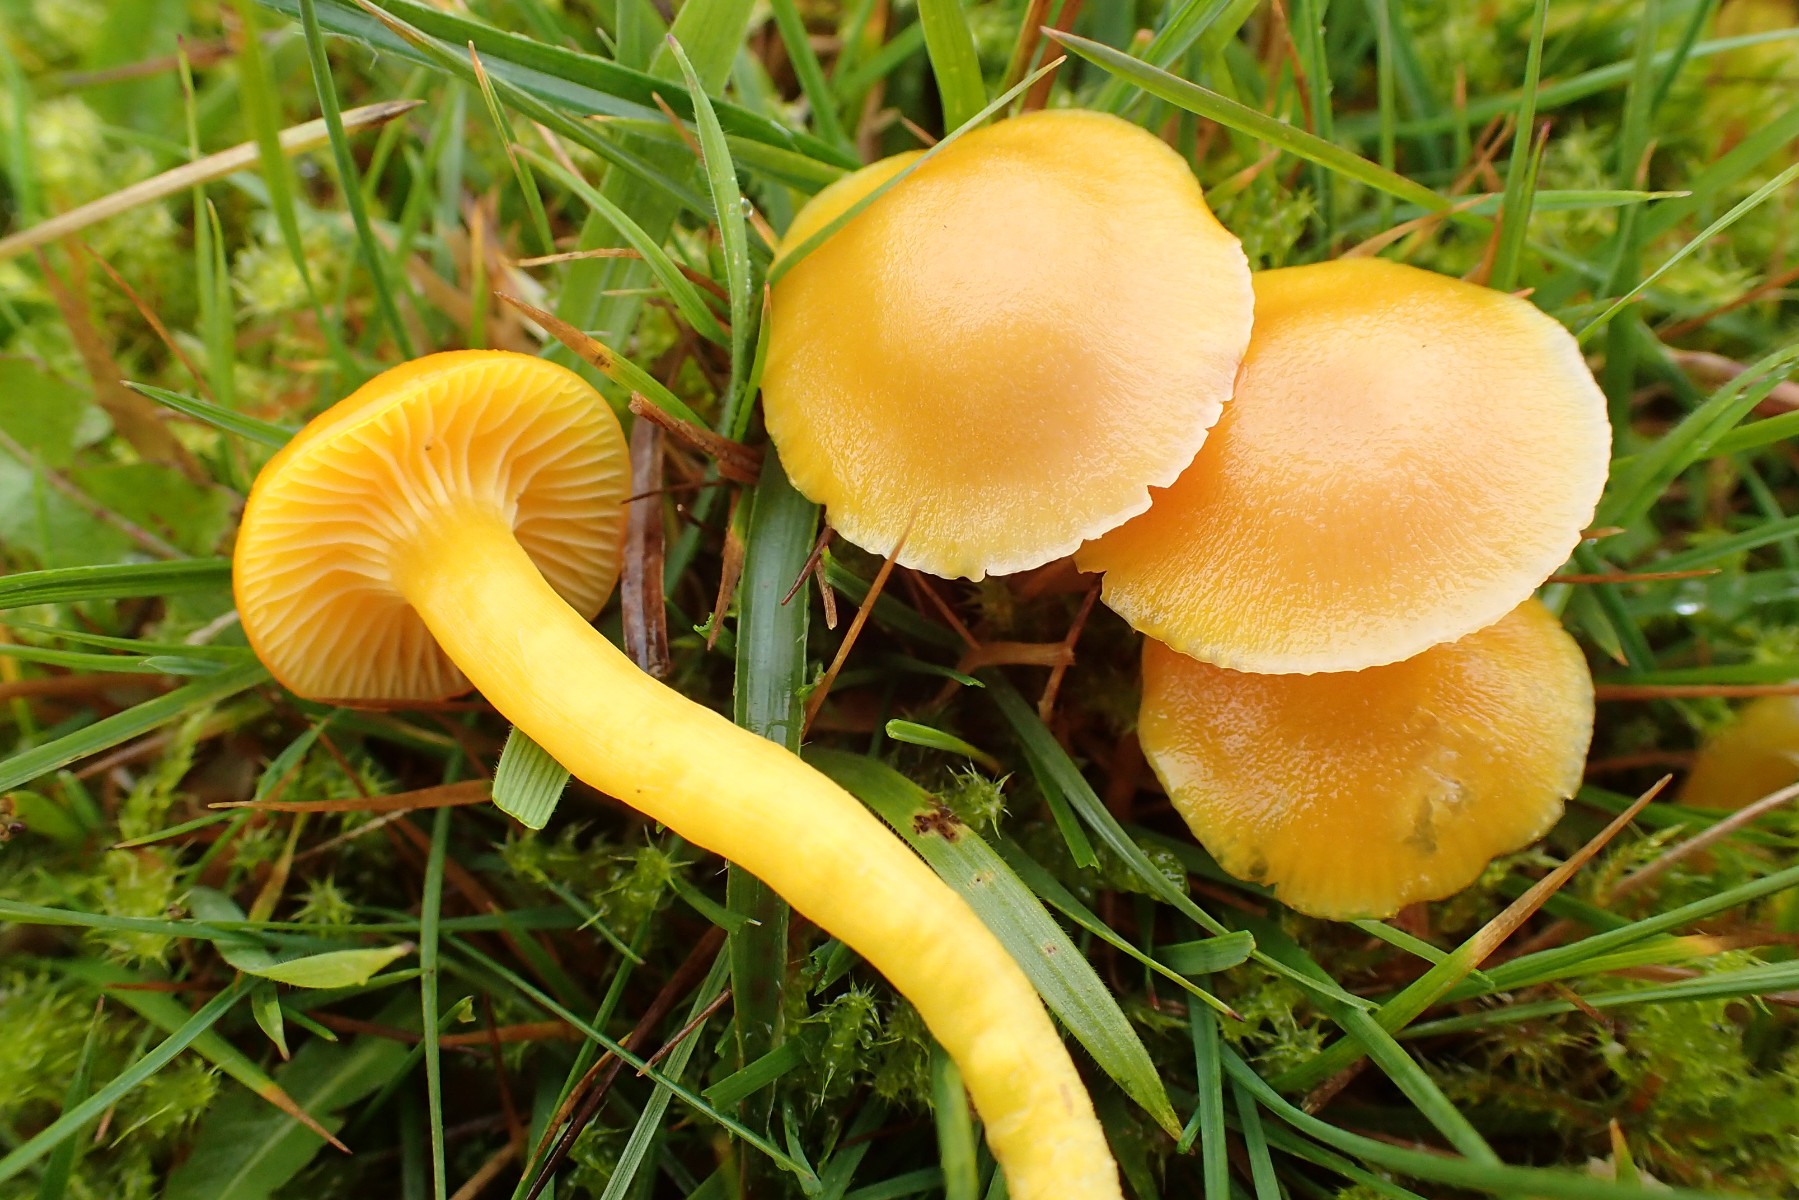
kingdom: Fungi
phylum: Basidiomycota
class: Agaricomycetes
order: Agaricales
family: Hygrophoraceae
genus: Hygrocybe
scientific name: Hygrocybe ceracea
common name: voksgul vokshat
